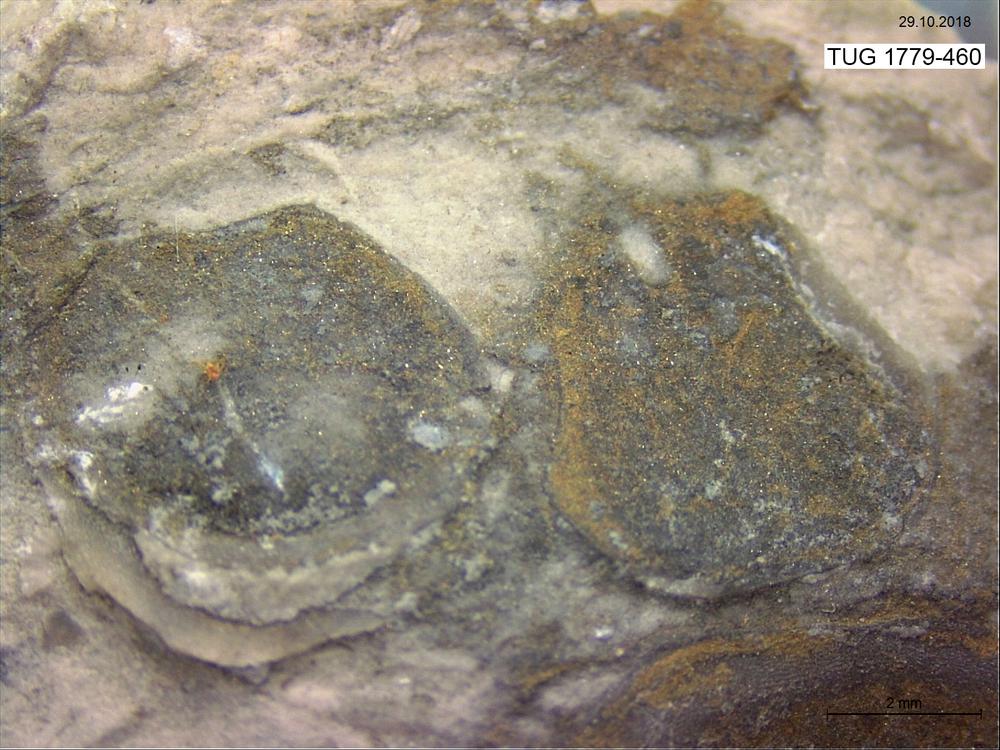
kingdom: Animalia
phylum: Brachiopoda
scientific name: Brachiopoda
